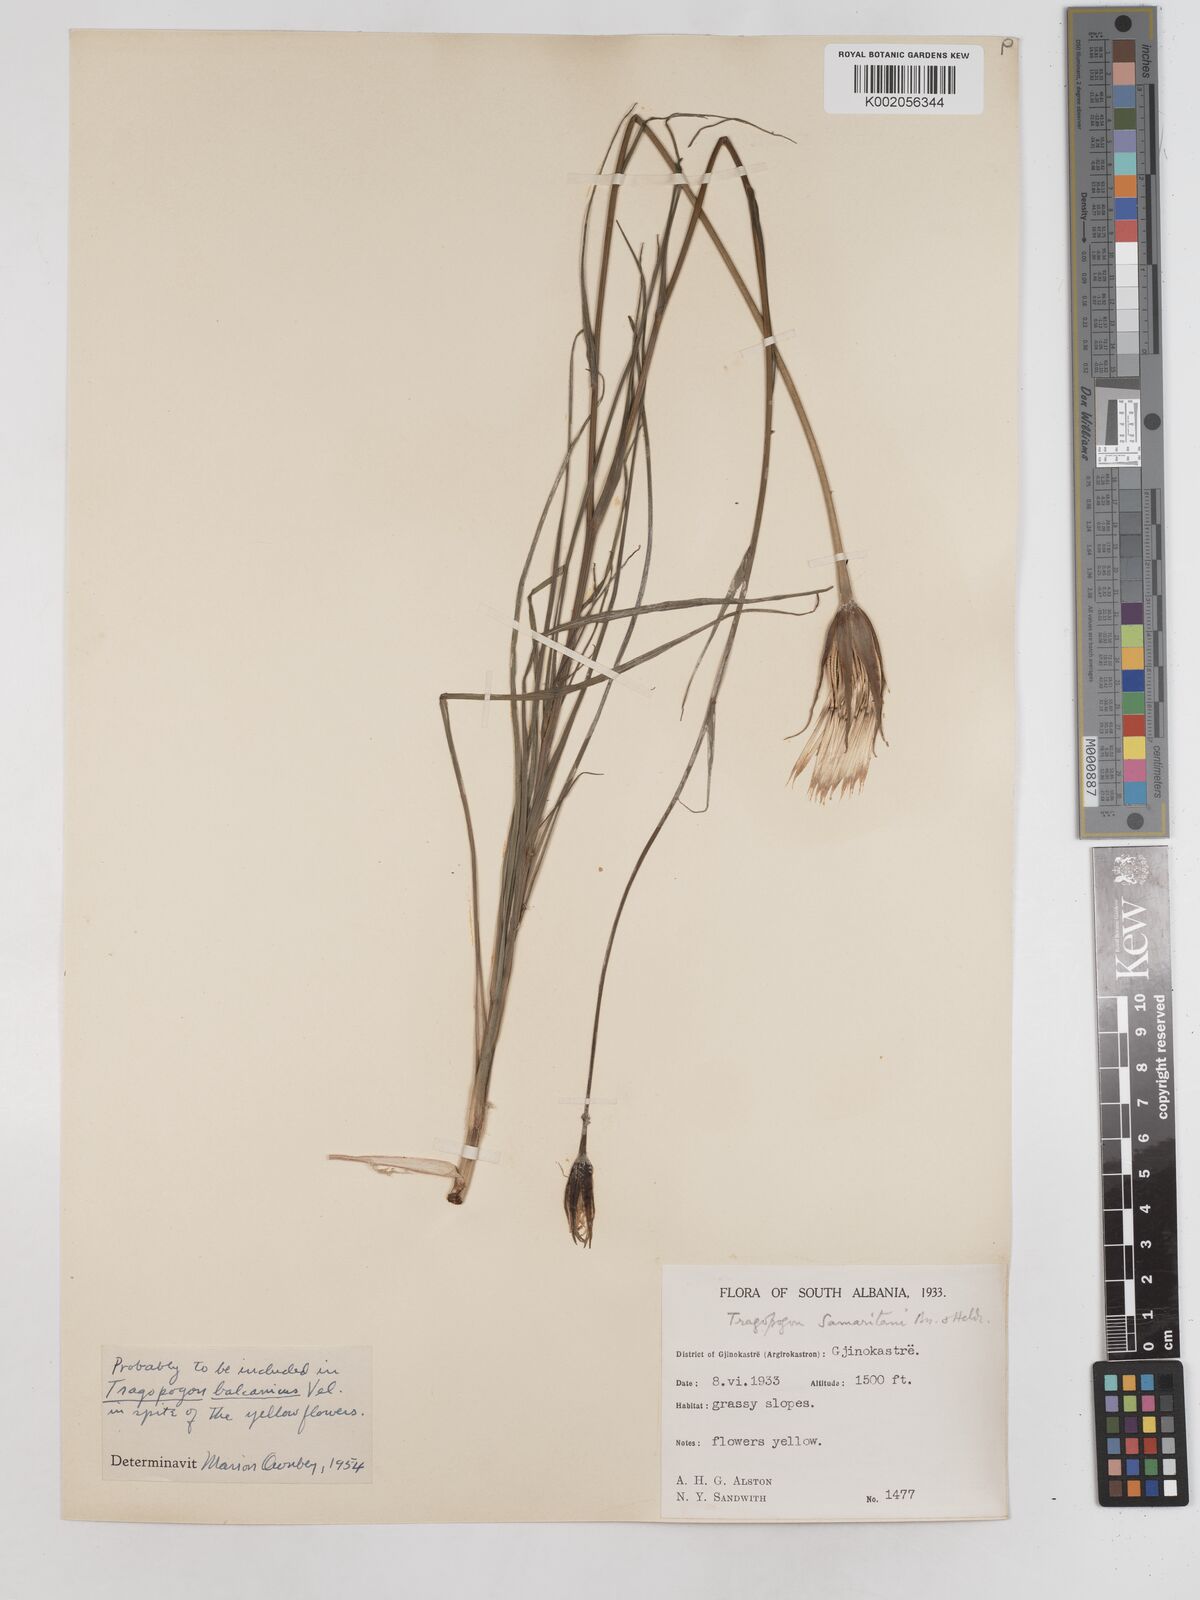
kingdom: Plantae
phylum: Tracheophyta
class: Magnoliopsida
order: Asterales
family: Asteraceae
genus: Tragopogon
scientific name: Tragopogon balcanicus
